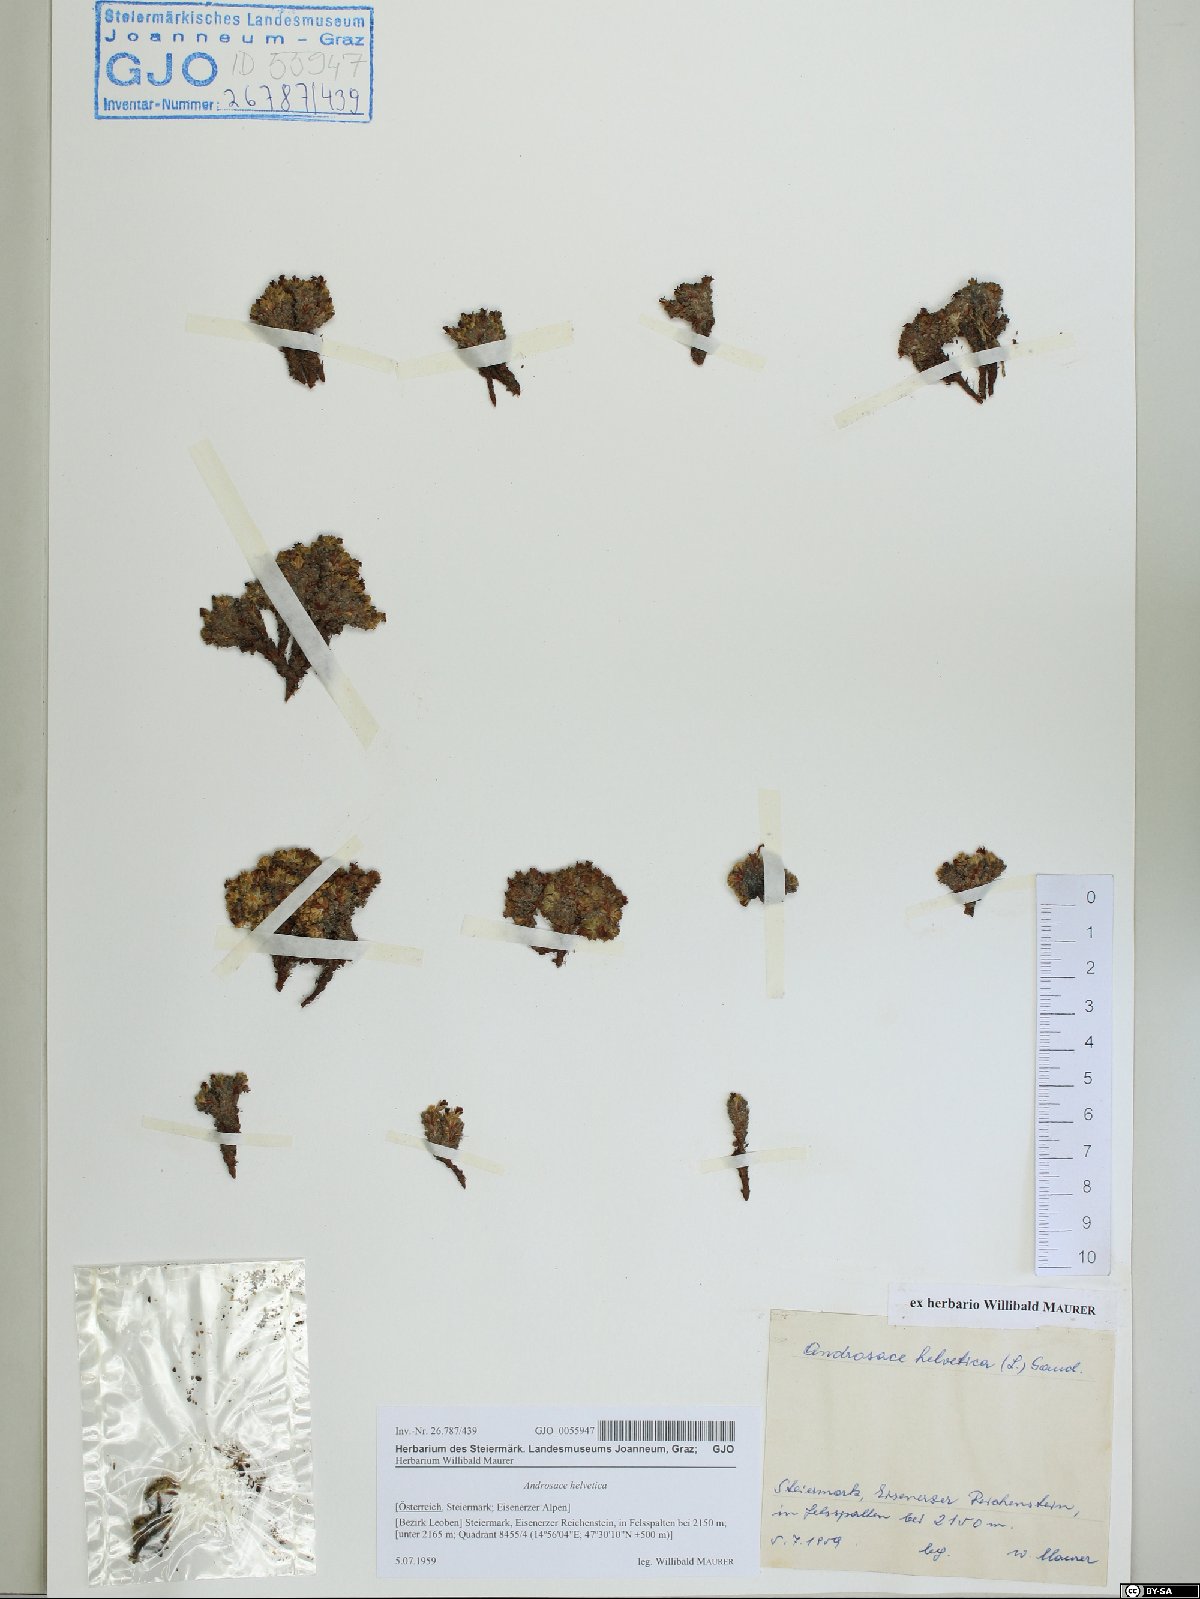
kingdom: Plantae
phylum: Tracheophyta
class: Magnoliopsida
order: Ericales
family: Primulaceae
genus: Androsace
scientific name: Androsace helvetica
